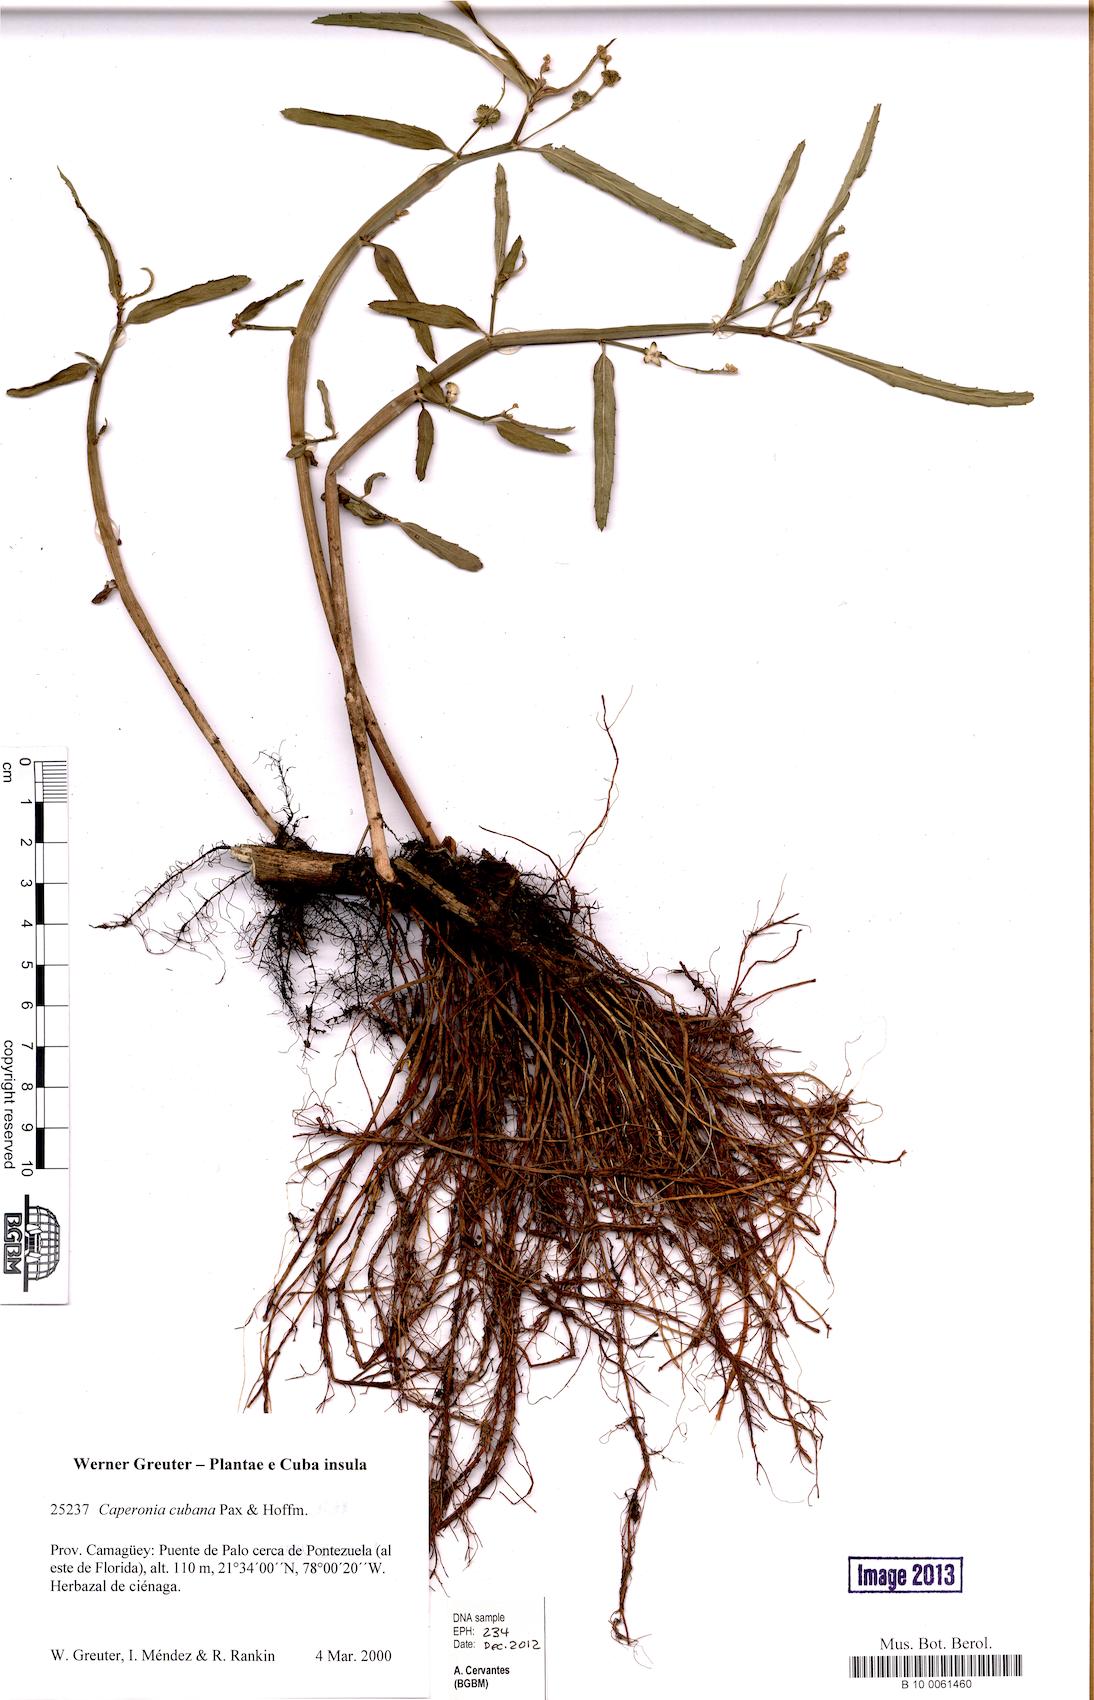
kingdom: Plantae
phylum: Tracheophyta
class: Magnoliopsida
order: Malpighiales
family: Euphorbiaceae
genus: Caperonia
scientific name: Caperonia cubana
